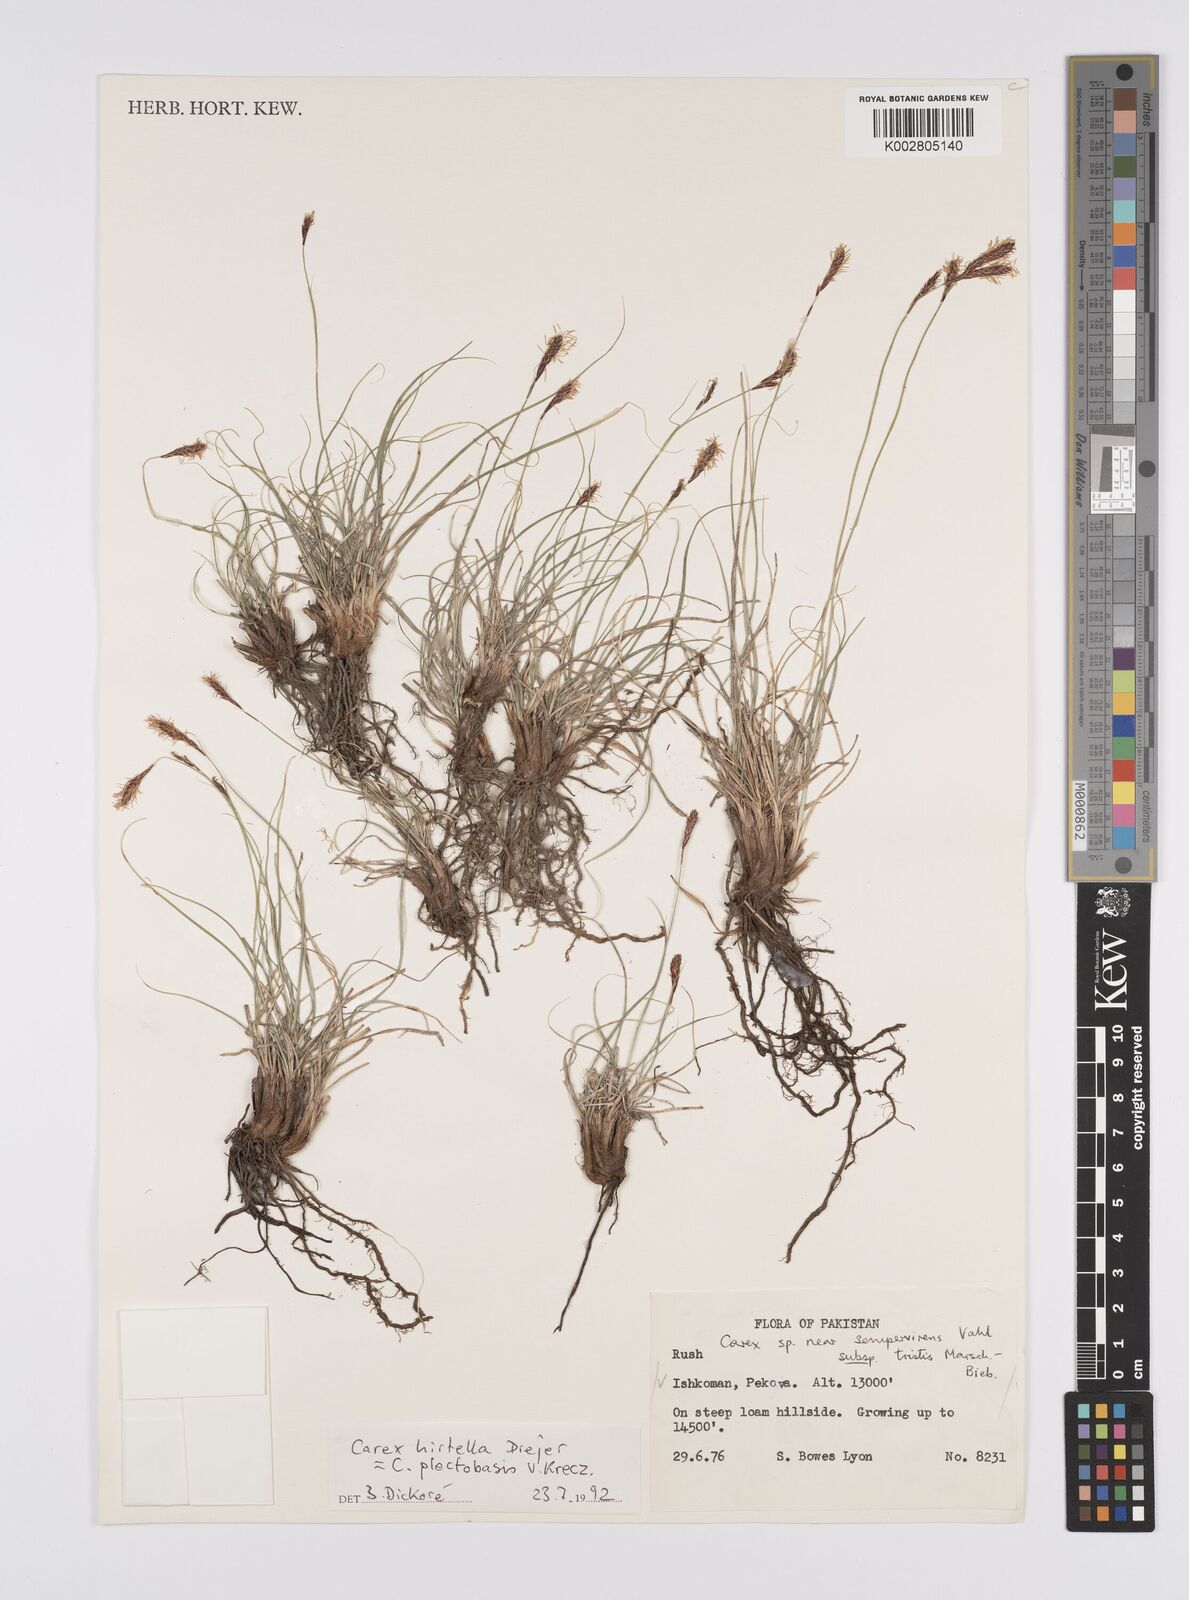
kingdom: Plantae
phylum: Tracheophyta
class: Liliopsida
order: Poales
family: Cyperaceae
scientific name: Cyperaceae
